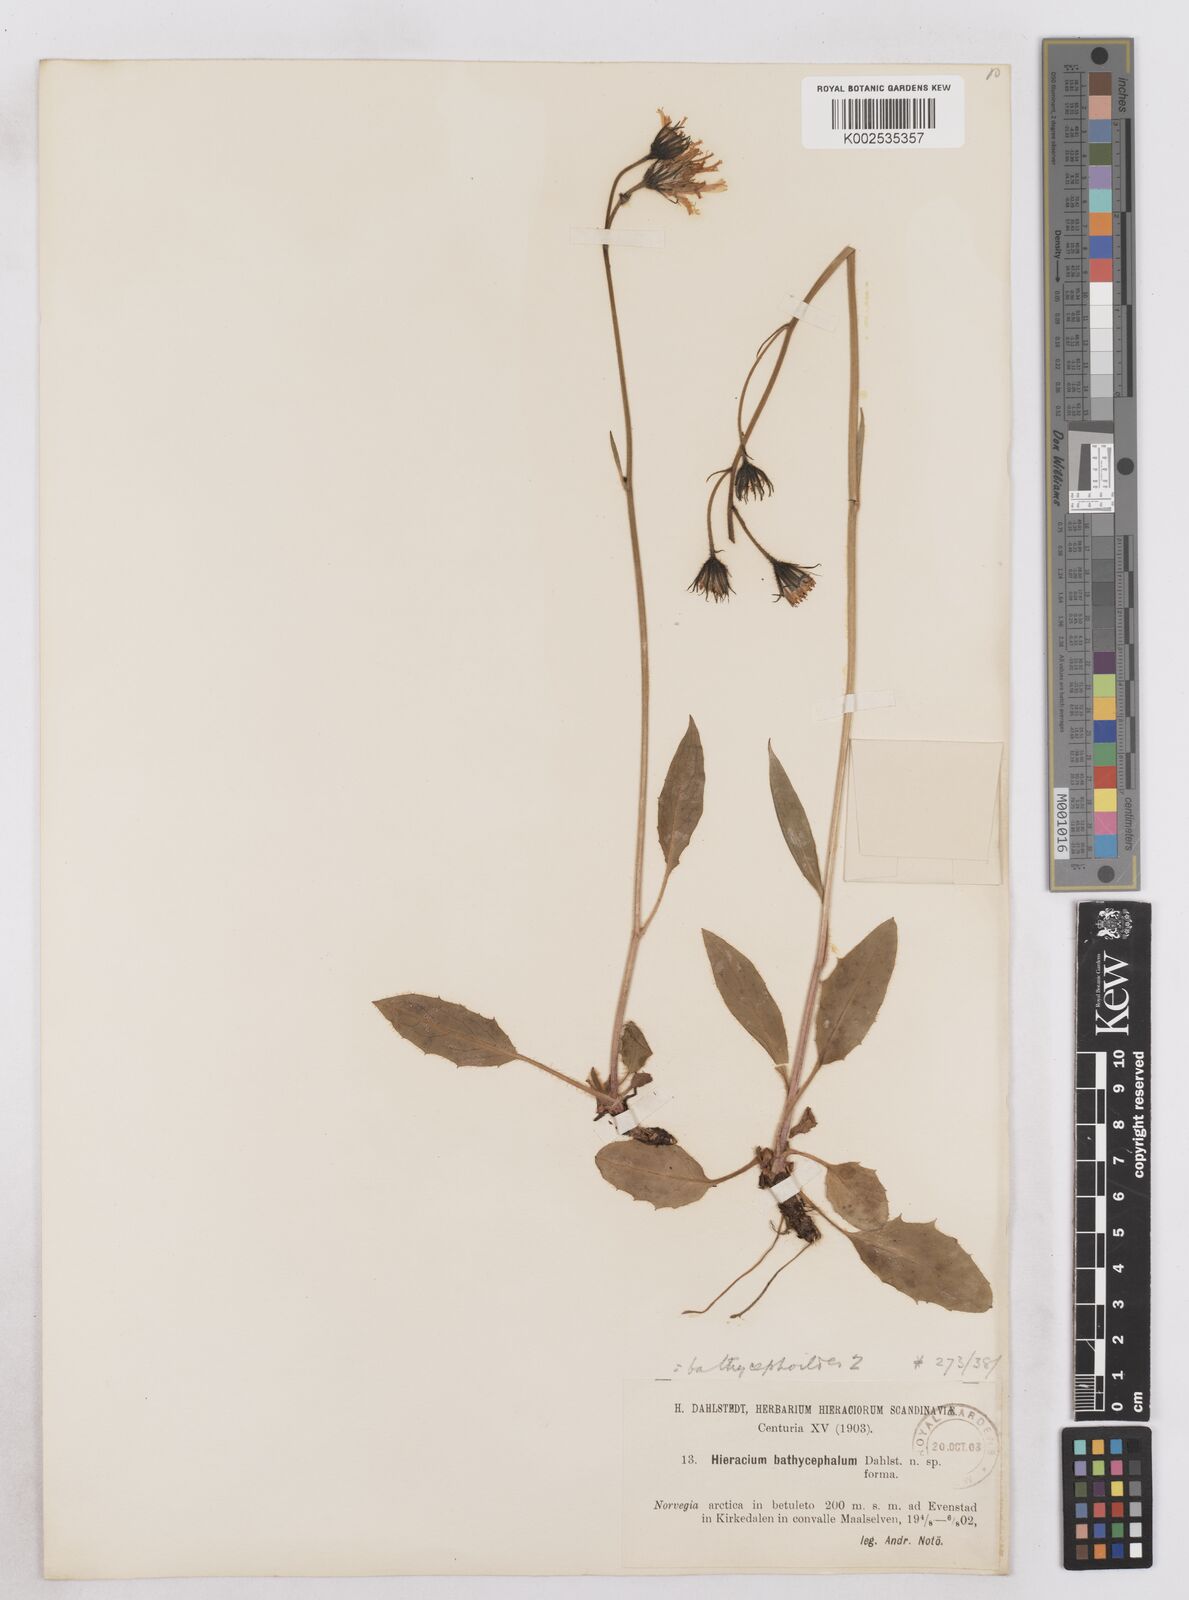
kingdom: Plantae
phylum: Tracheophyta
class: Magnoliopsida
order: Asterales
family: Asteraceae
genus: Hieracium
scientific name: Hieracium conspurcans
